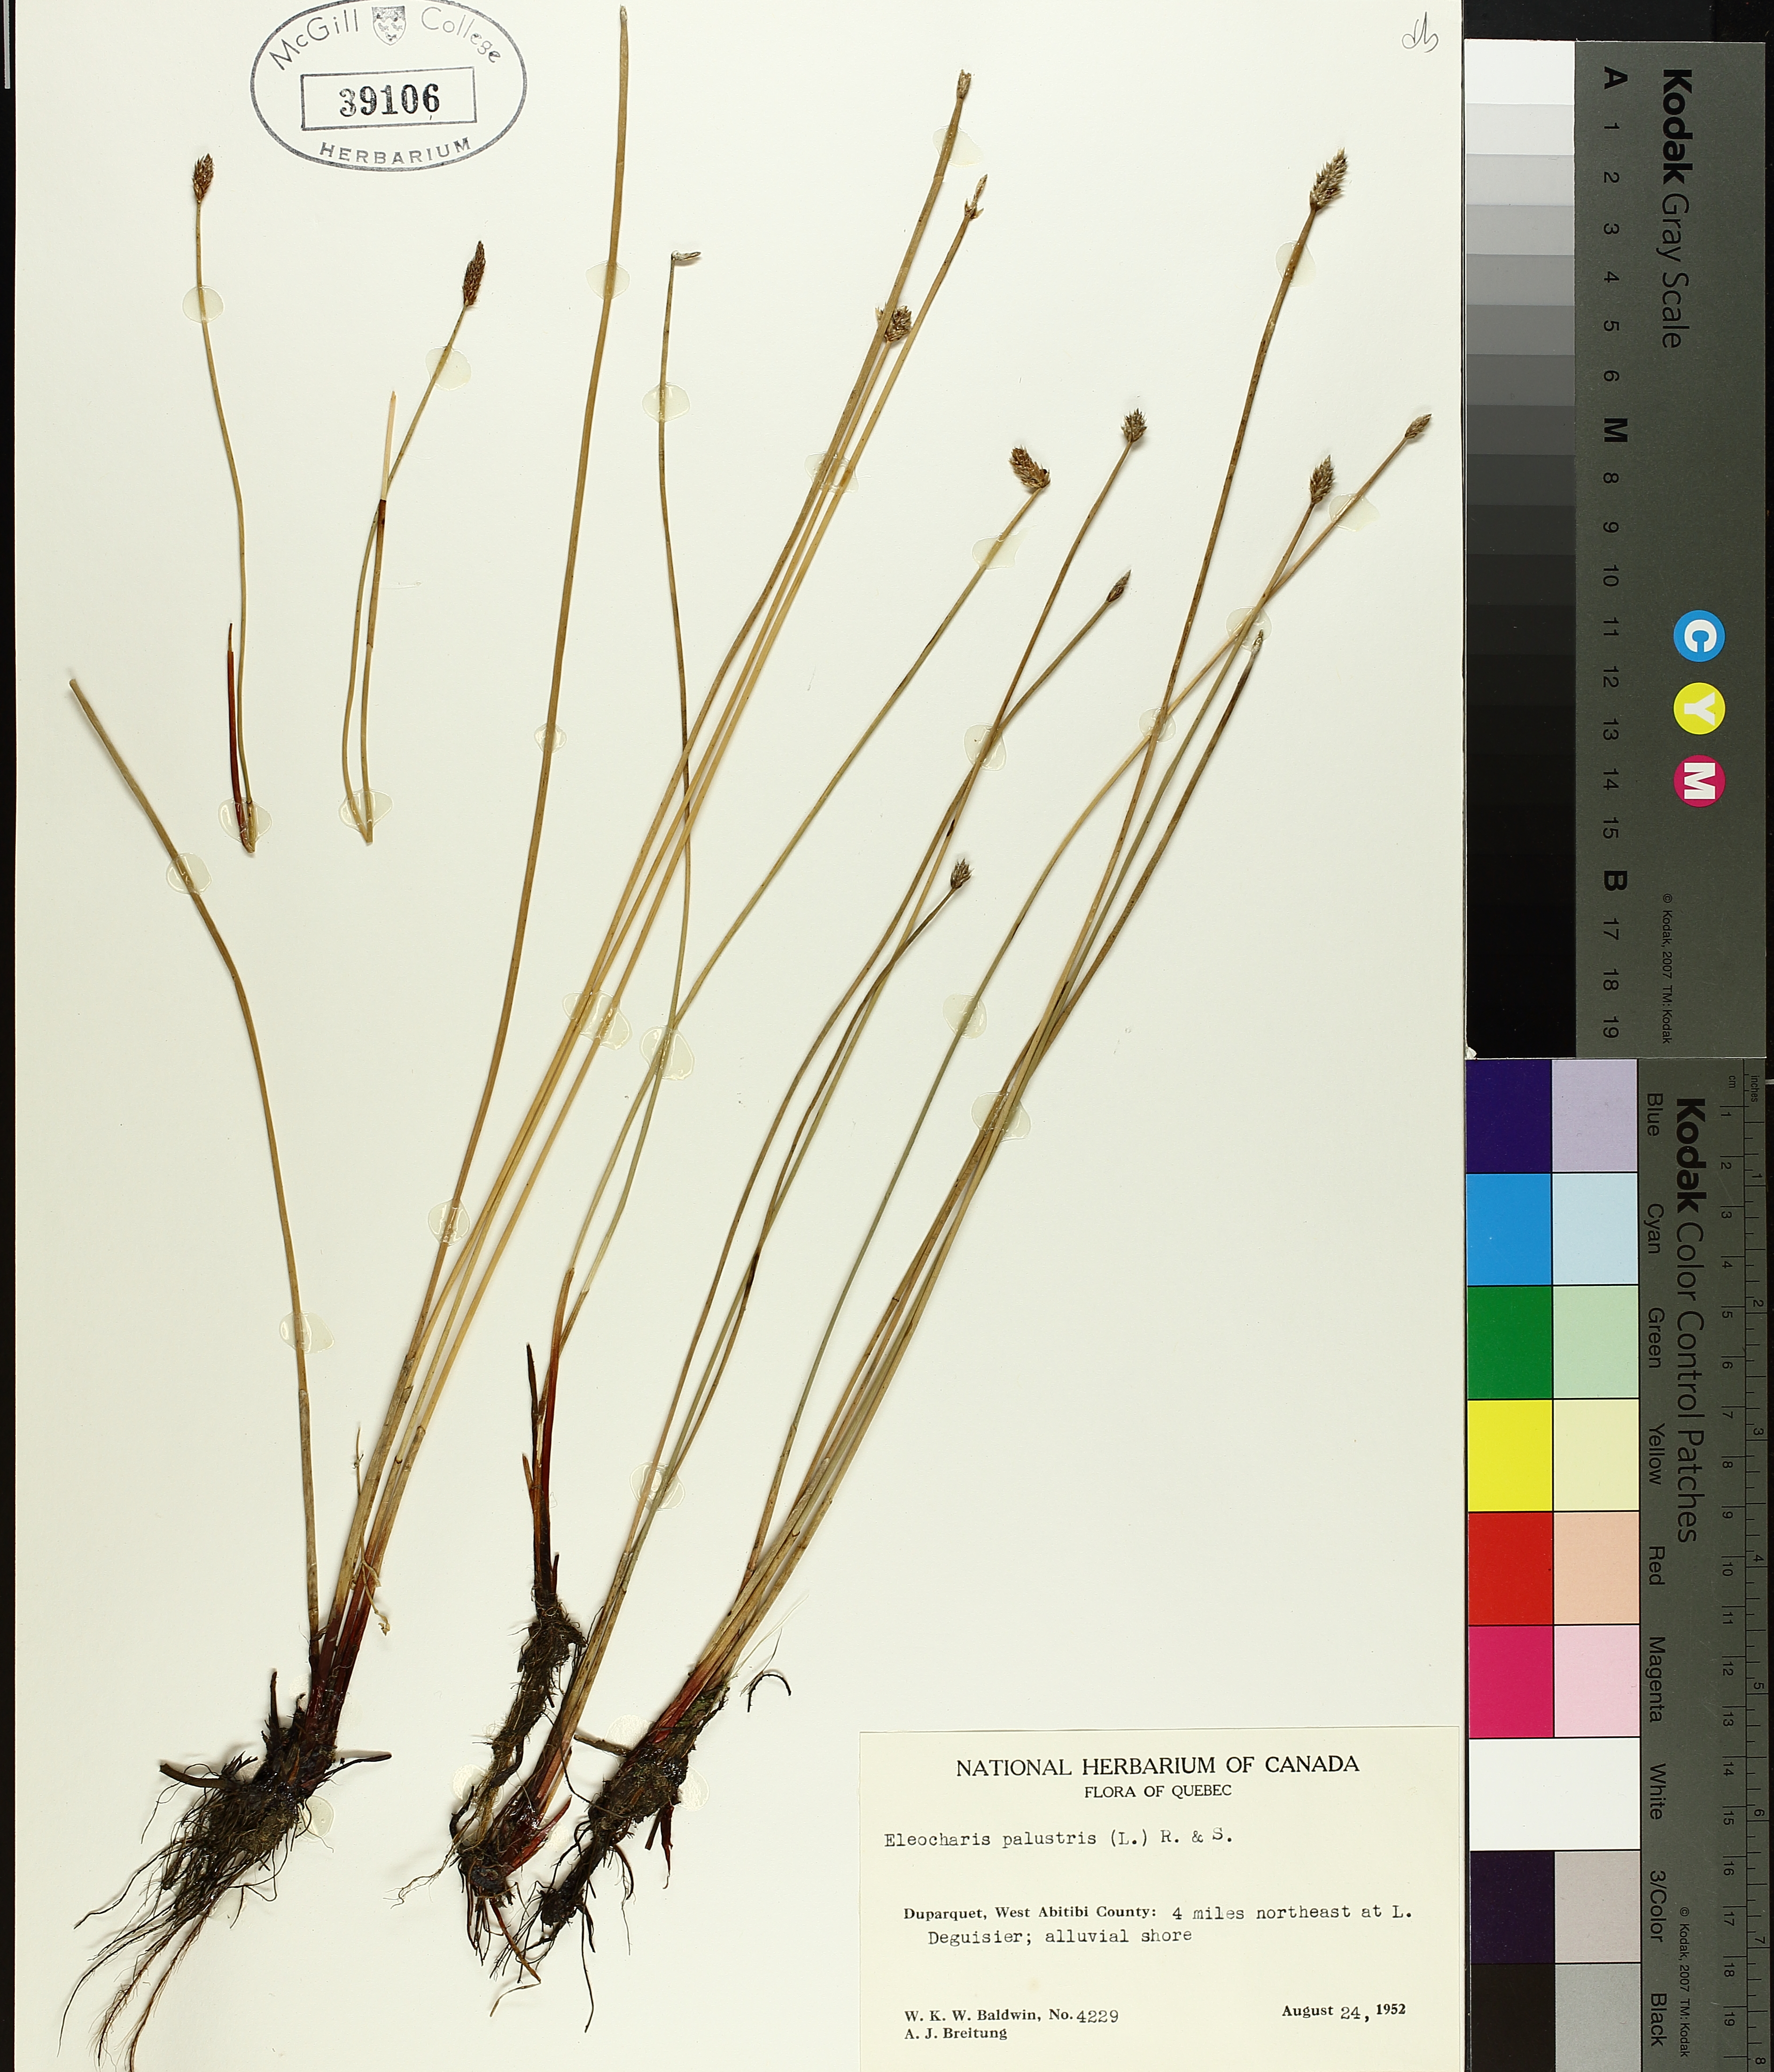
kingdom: Plantae
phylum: Tracheophyta
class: Liliopsida
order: Poales
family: Cyperaceae
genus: Eleocharis
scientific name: Eleocharis palustris
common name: Common spike-rush
